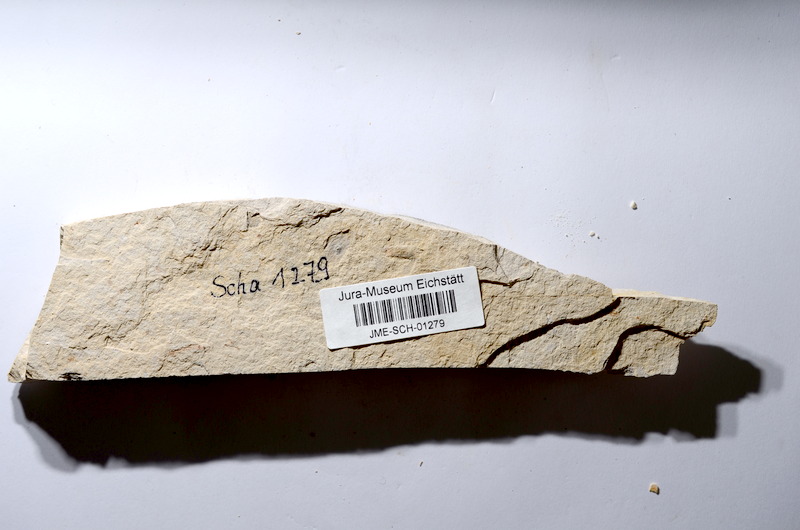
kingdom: Animalia
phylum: Chordata
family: Ascalaboidae
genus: Tharsis
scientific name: Tharsis dubius
